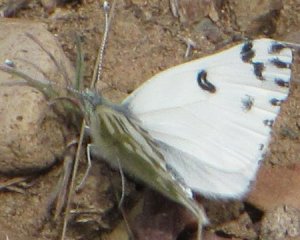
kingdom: Animalia
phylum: Arthropoda
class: Insecta
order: Lepidoptera
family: Pieridae
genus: Pontia
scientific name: Pontia beckerii
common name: Becker's White
